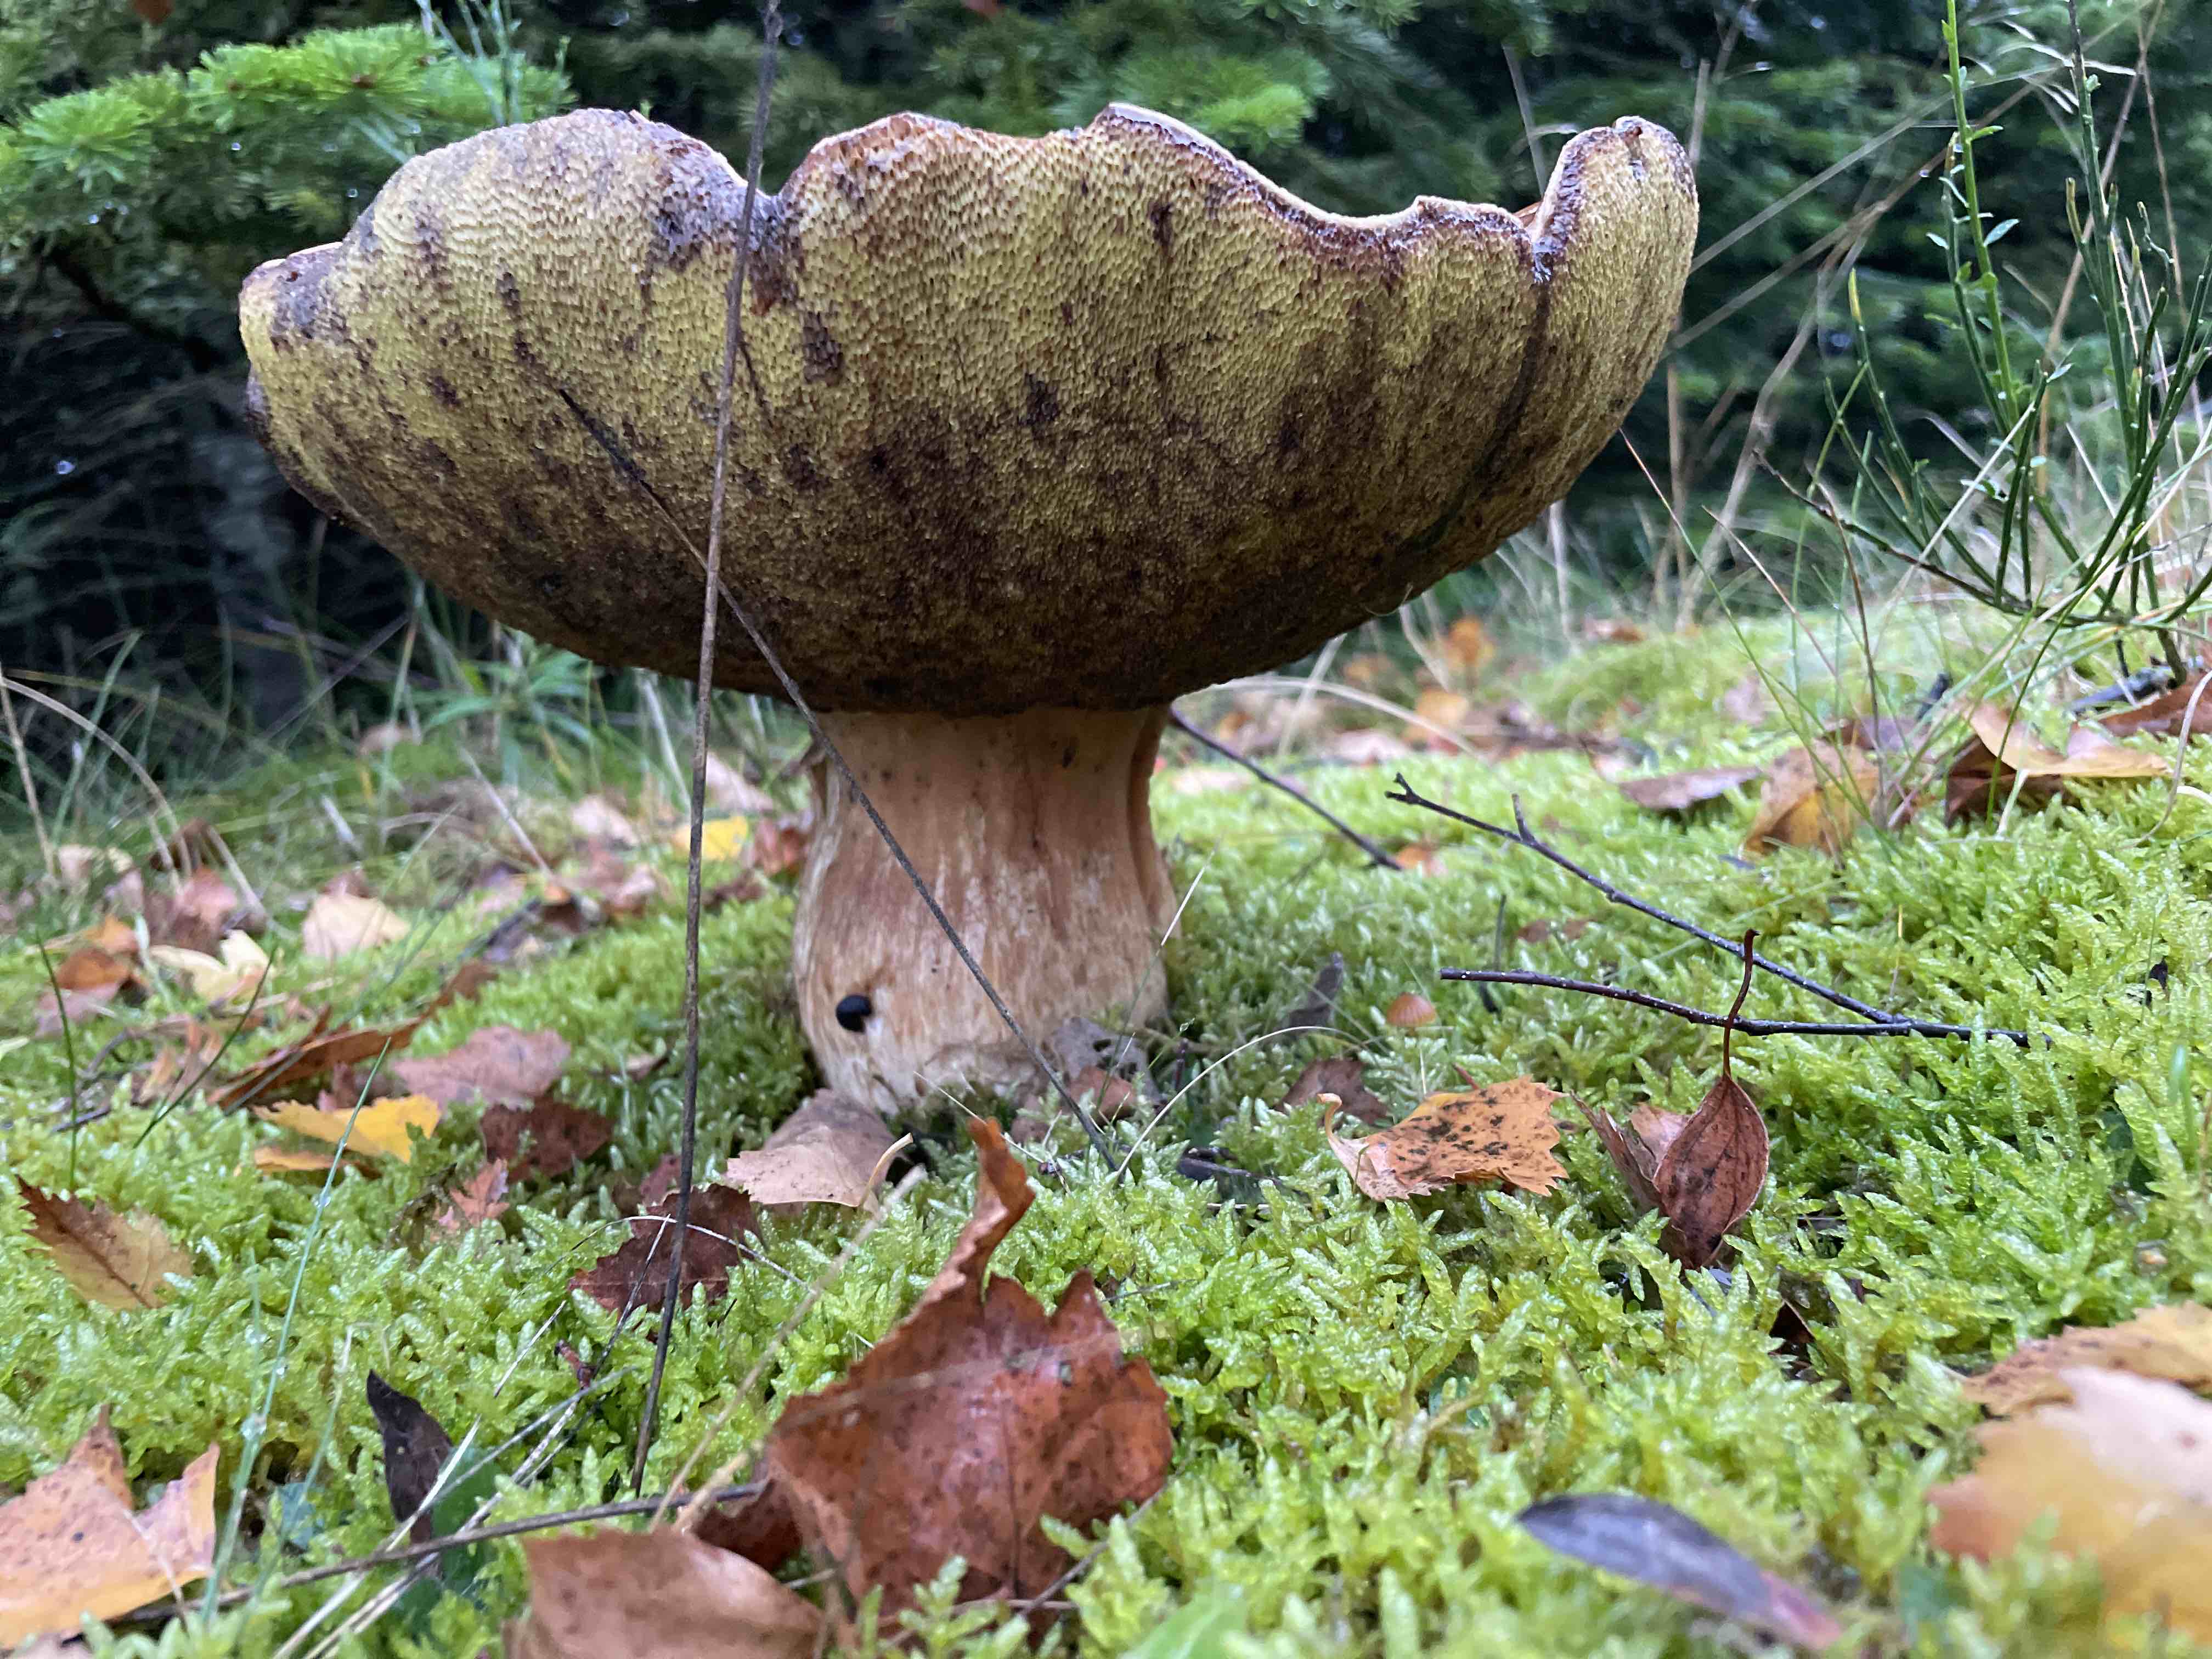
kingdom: Fungi
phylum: Basidiomycota
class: Agaricomycetes
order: Boletales
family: Boletaceae
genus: Boletus
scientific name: Boletus edulis
